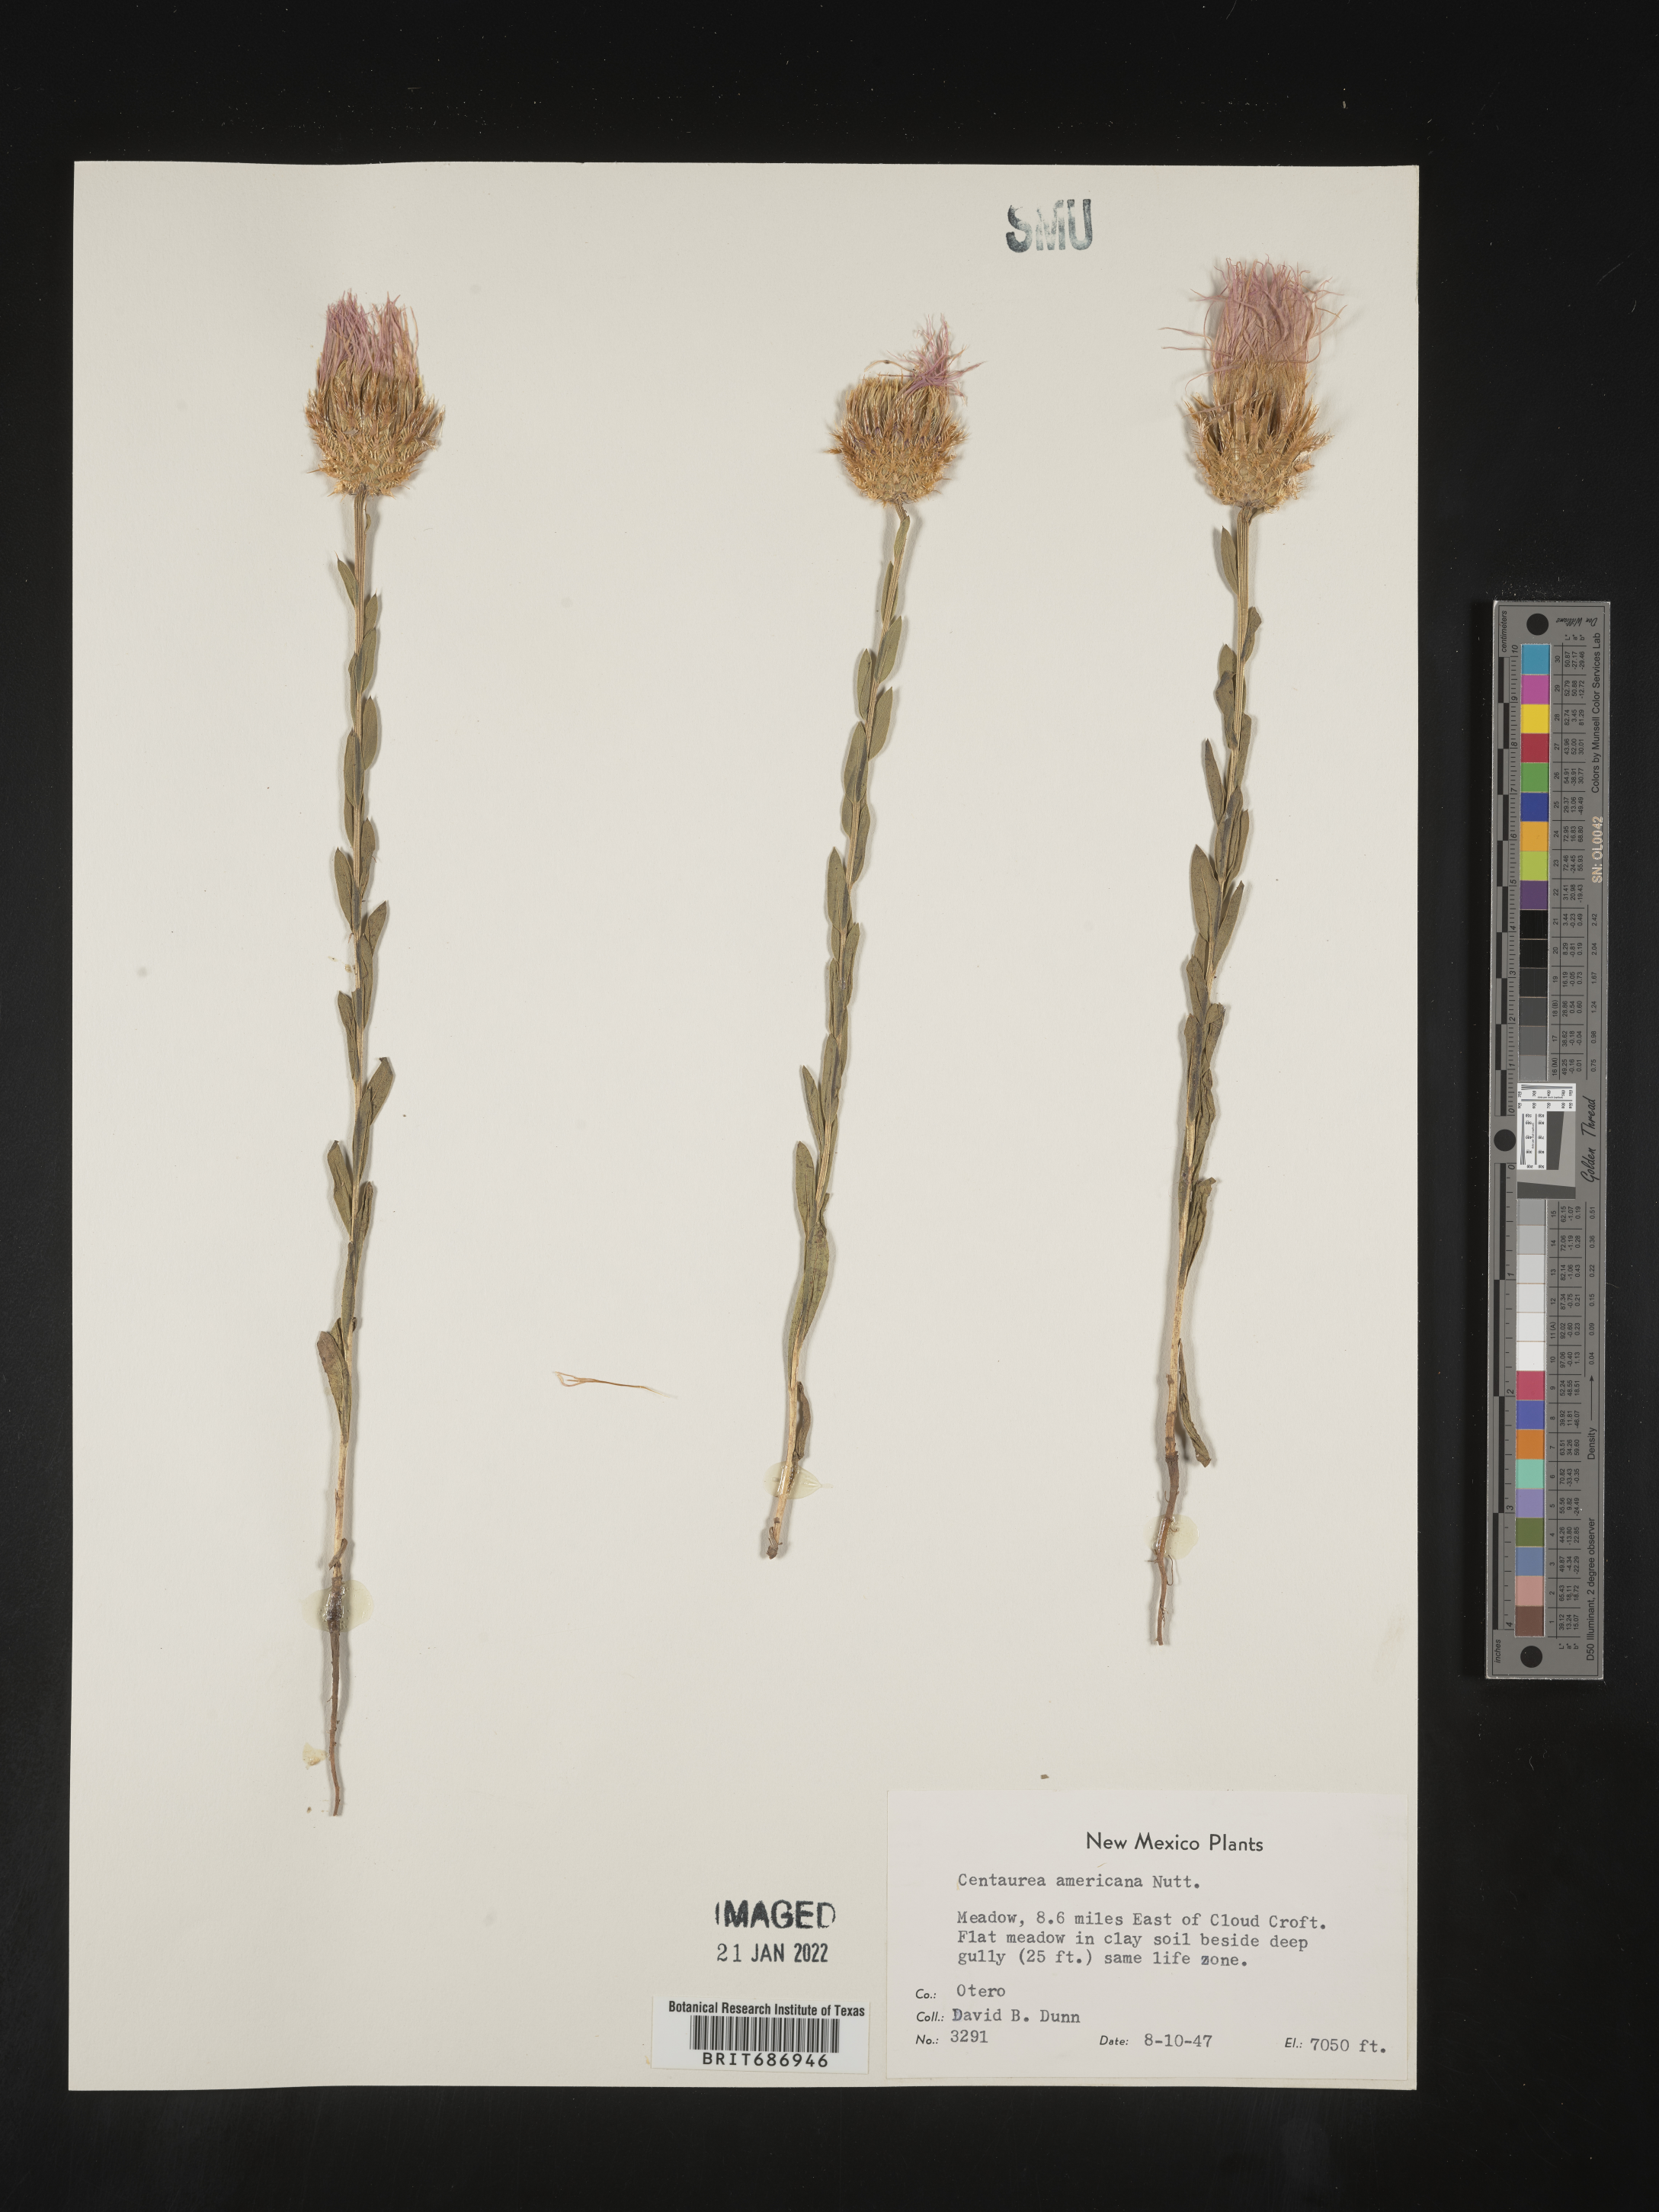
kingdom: Plantae
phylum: Tracheophyta
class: Magnoliopsida
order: Asterales
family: Asteraceae
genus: Plectocephalus
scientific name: Plectocephalus americanus
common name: American basket-flower
